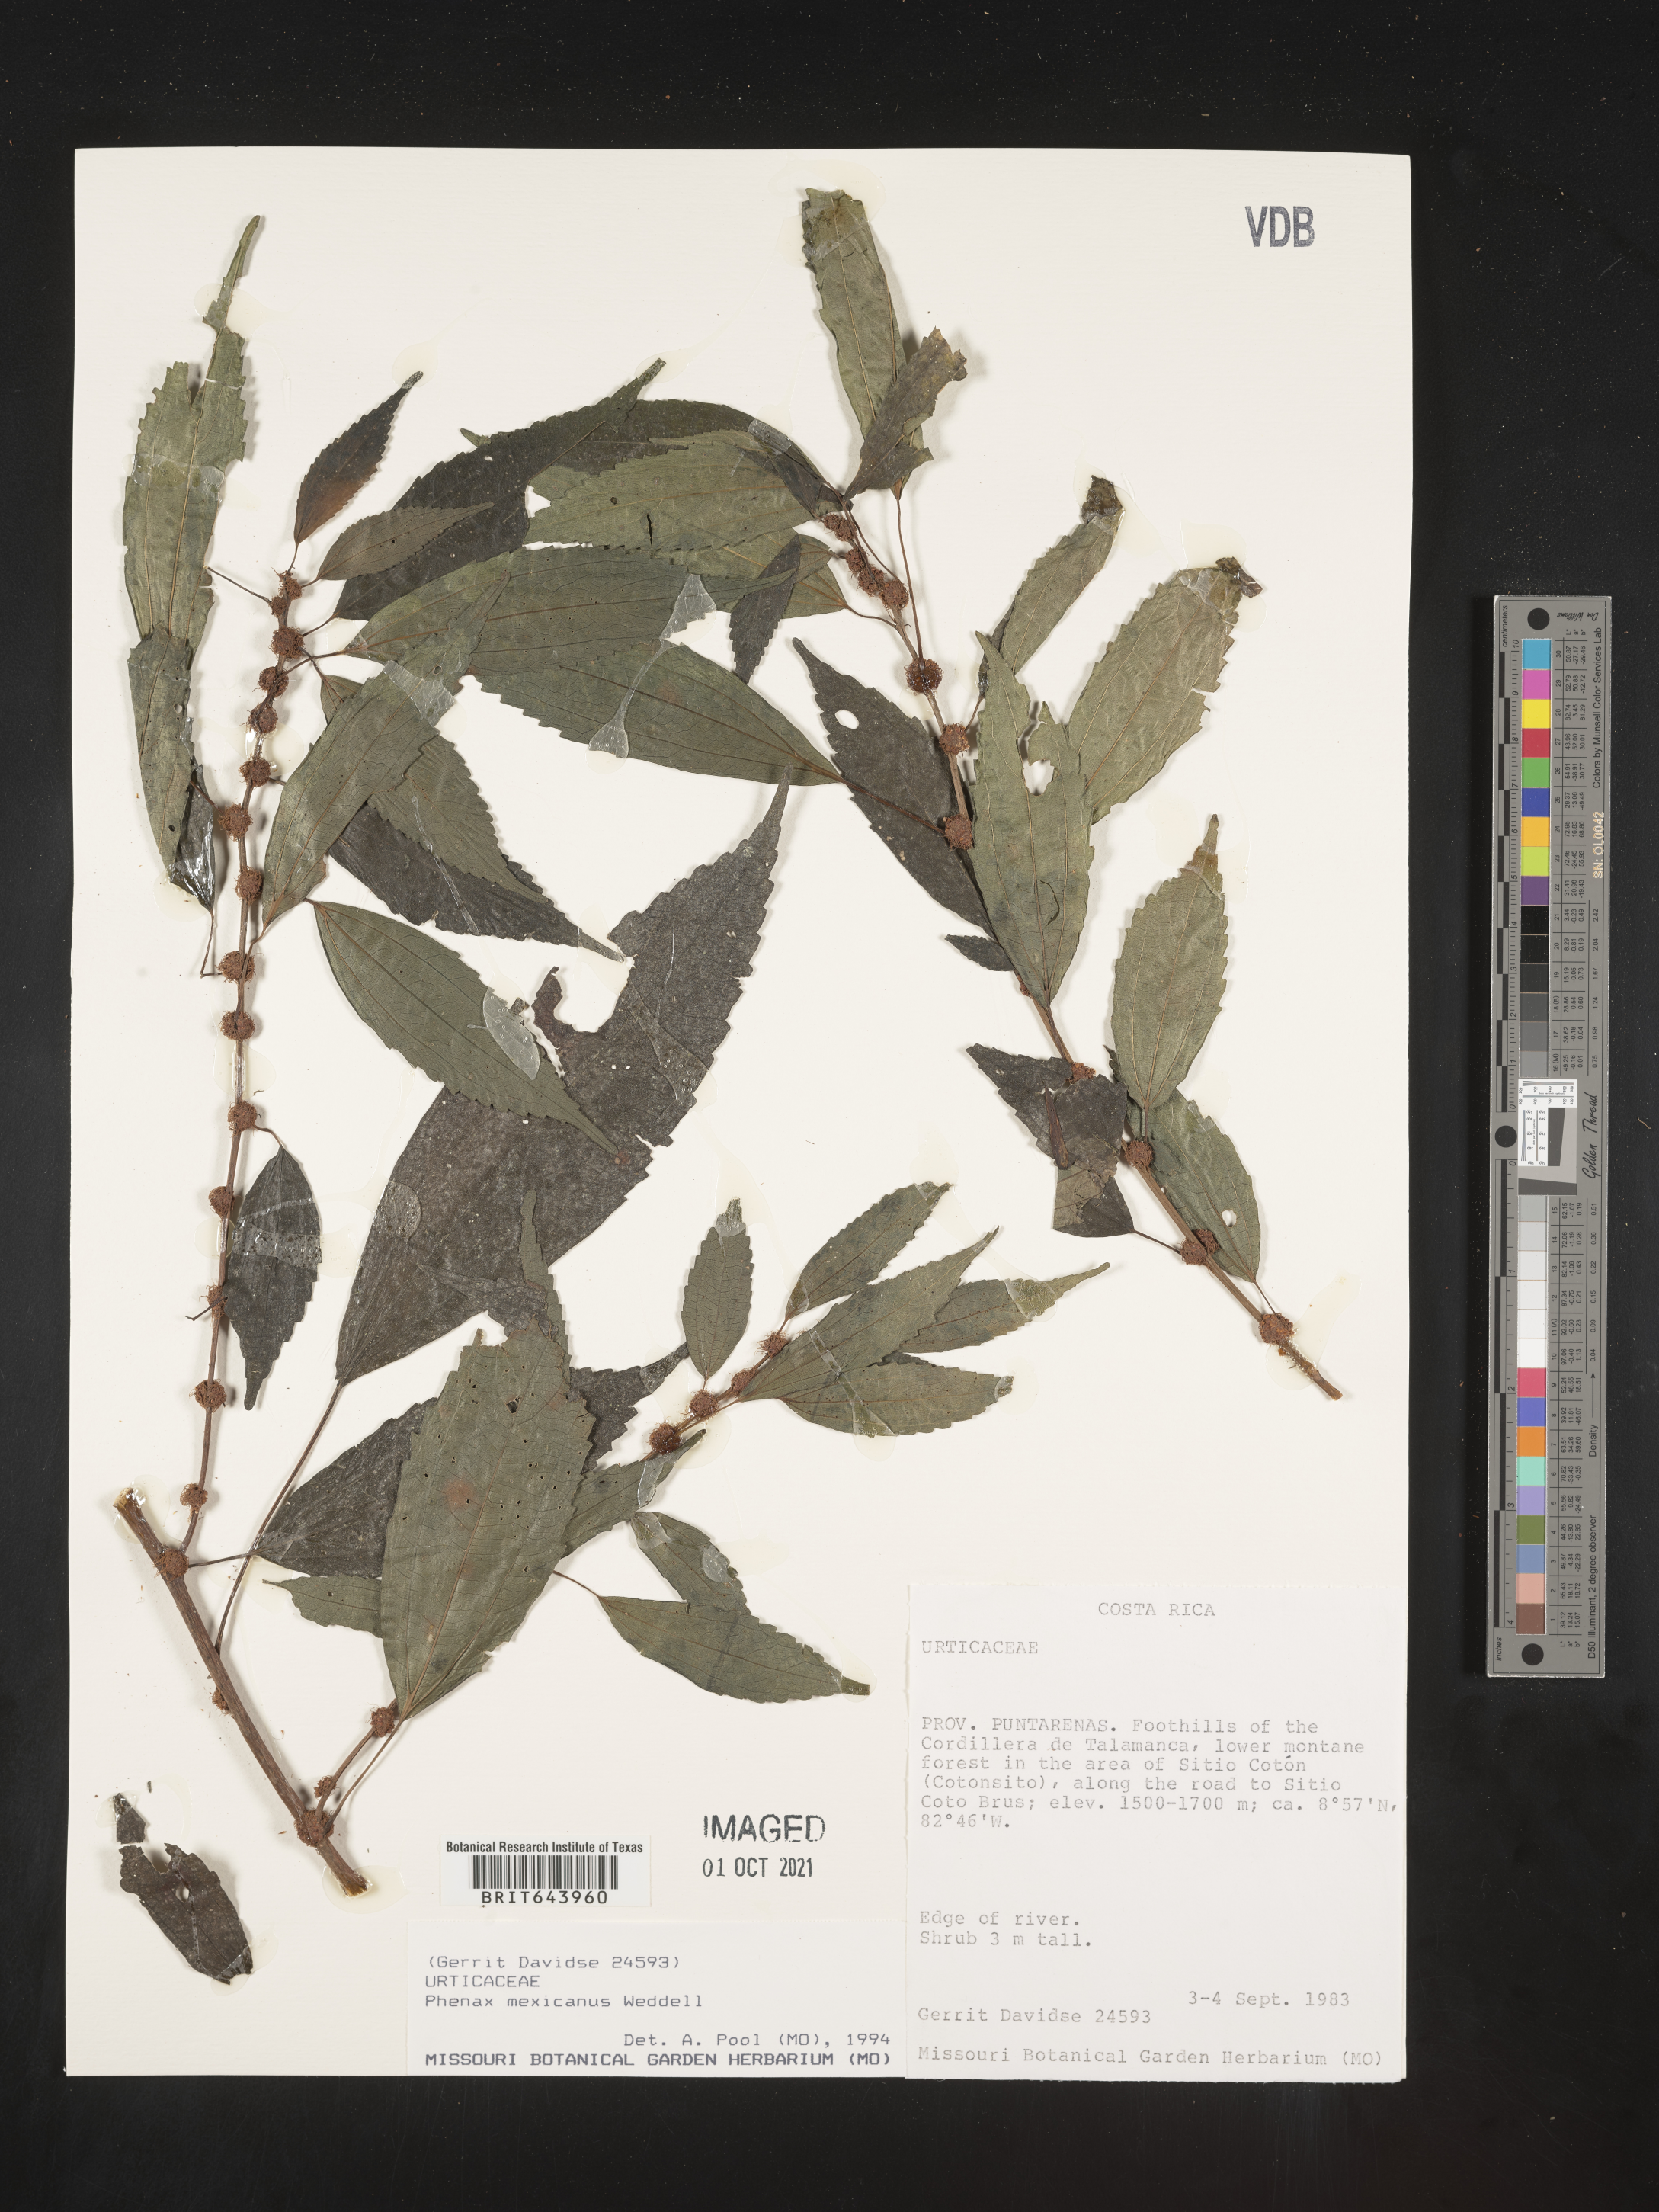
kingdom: Plantae
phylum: Tracheophyta
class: Magnoliopsida
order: Rosales
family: Urticaceae
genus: Phenax
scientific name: Phenax
